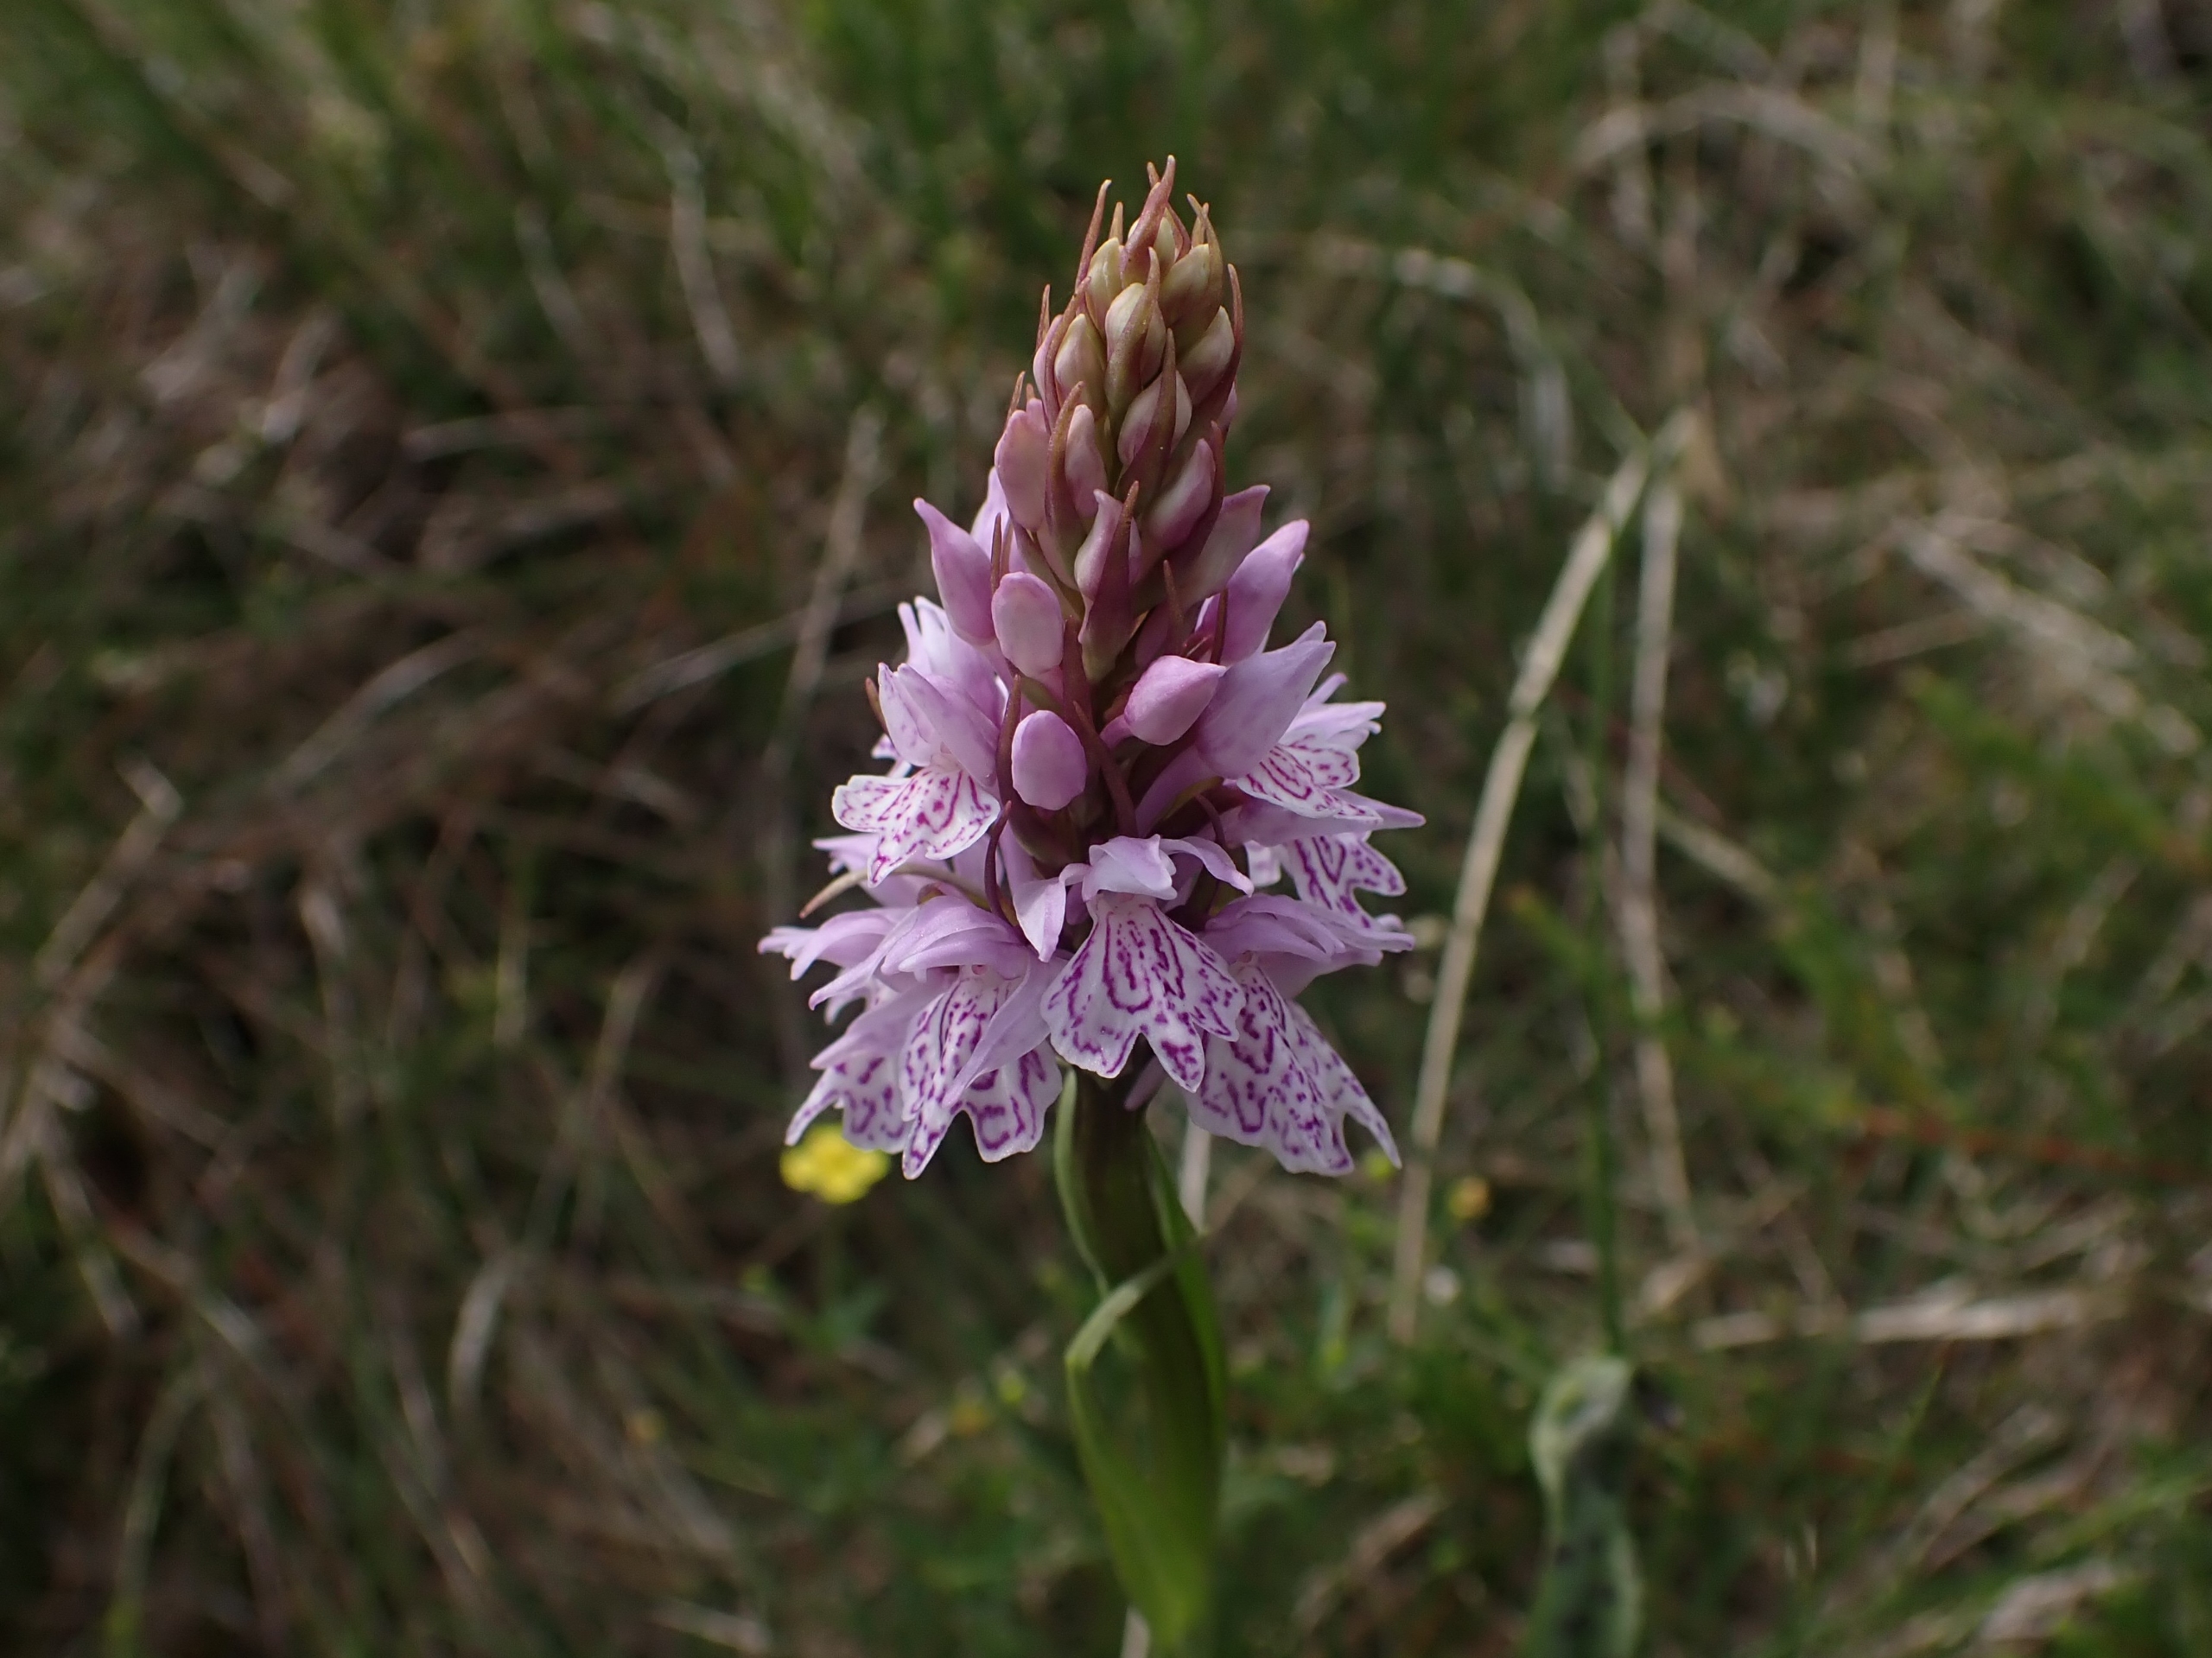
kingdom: Plantae
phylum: Tracheophyta
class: Liliopsida
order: Asparagales
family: Orchidaceae
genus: Dactylorhiza
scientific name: Dactylorhiza maculata
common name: Plettet gøgeurt
